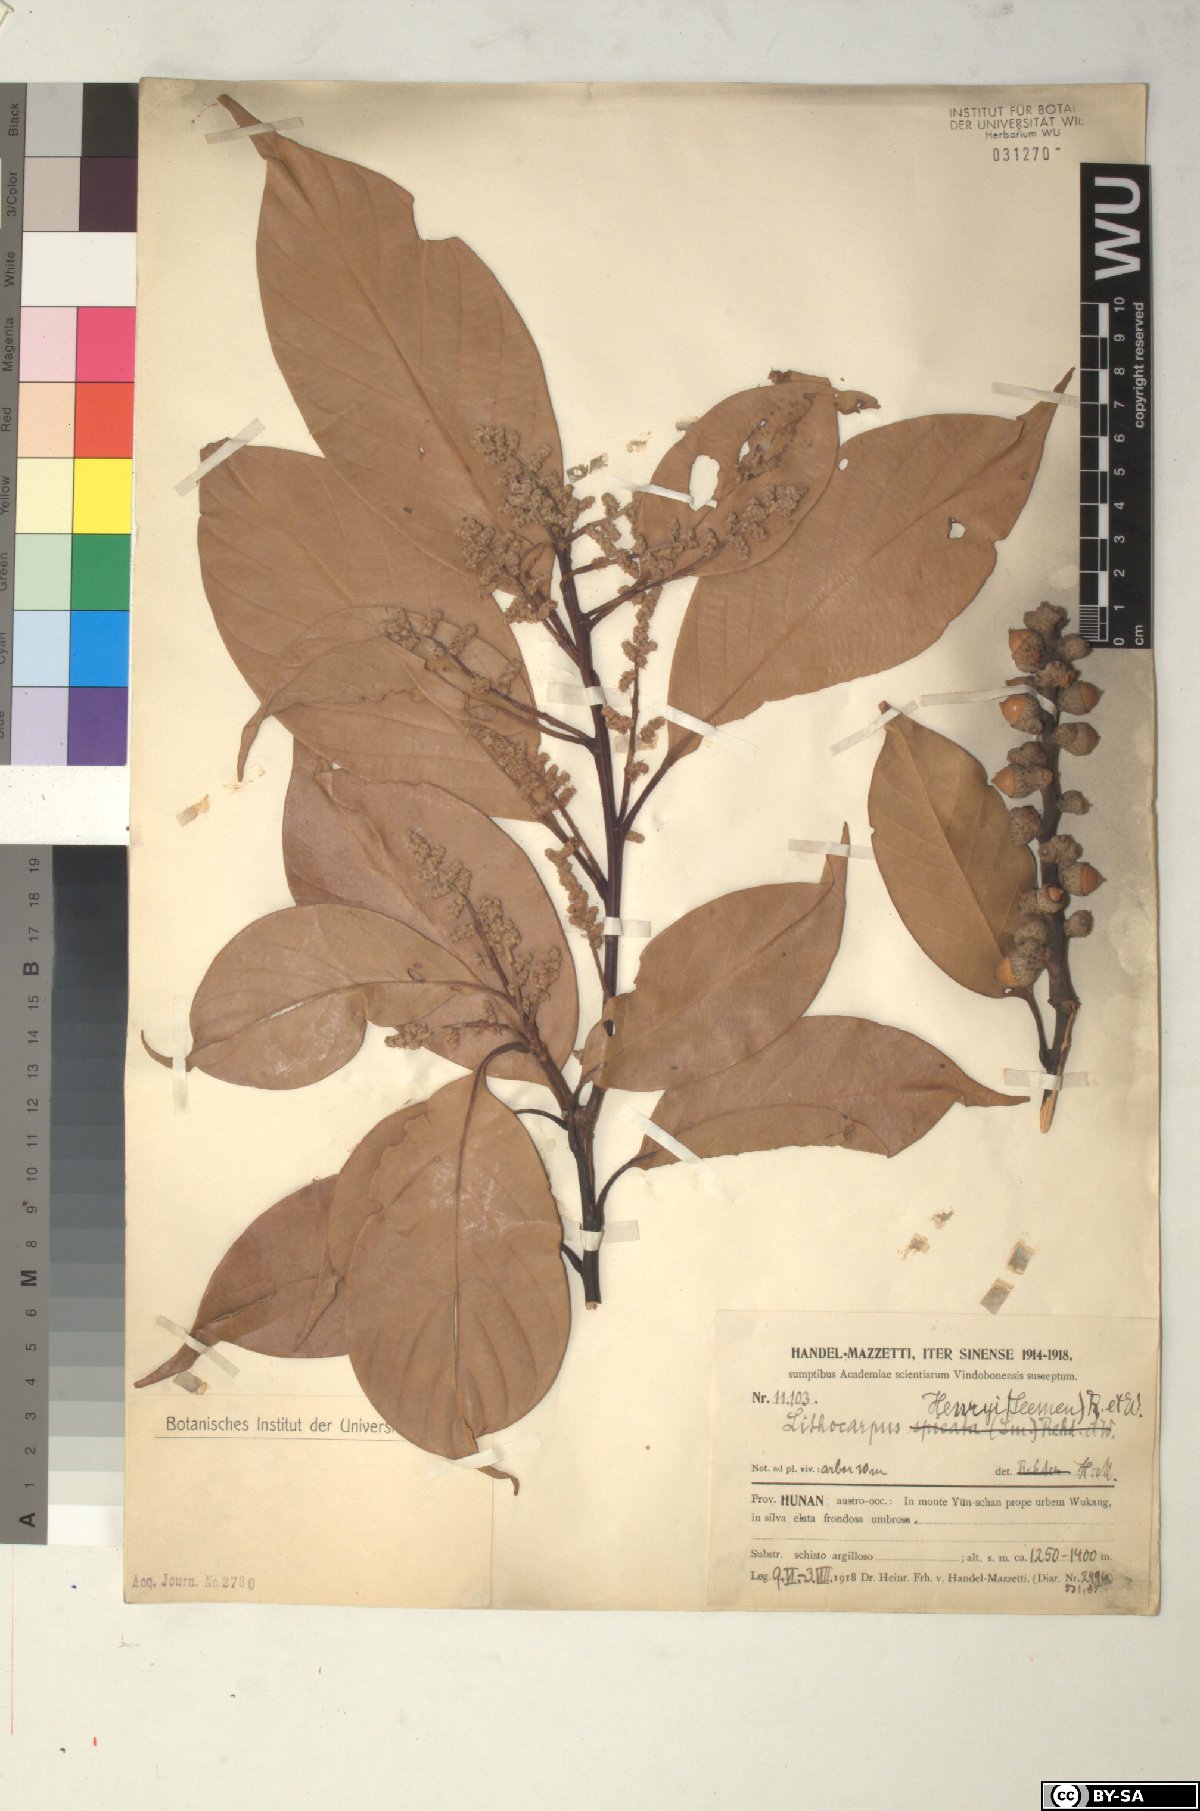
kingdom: Plantae
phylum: Tracheophyta
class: Magnoliopsida
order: Fagales
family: Fagaceae
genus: Lithocarpus
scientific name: Lithocarpus henryi
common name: Henry tanbark oak
